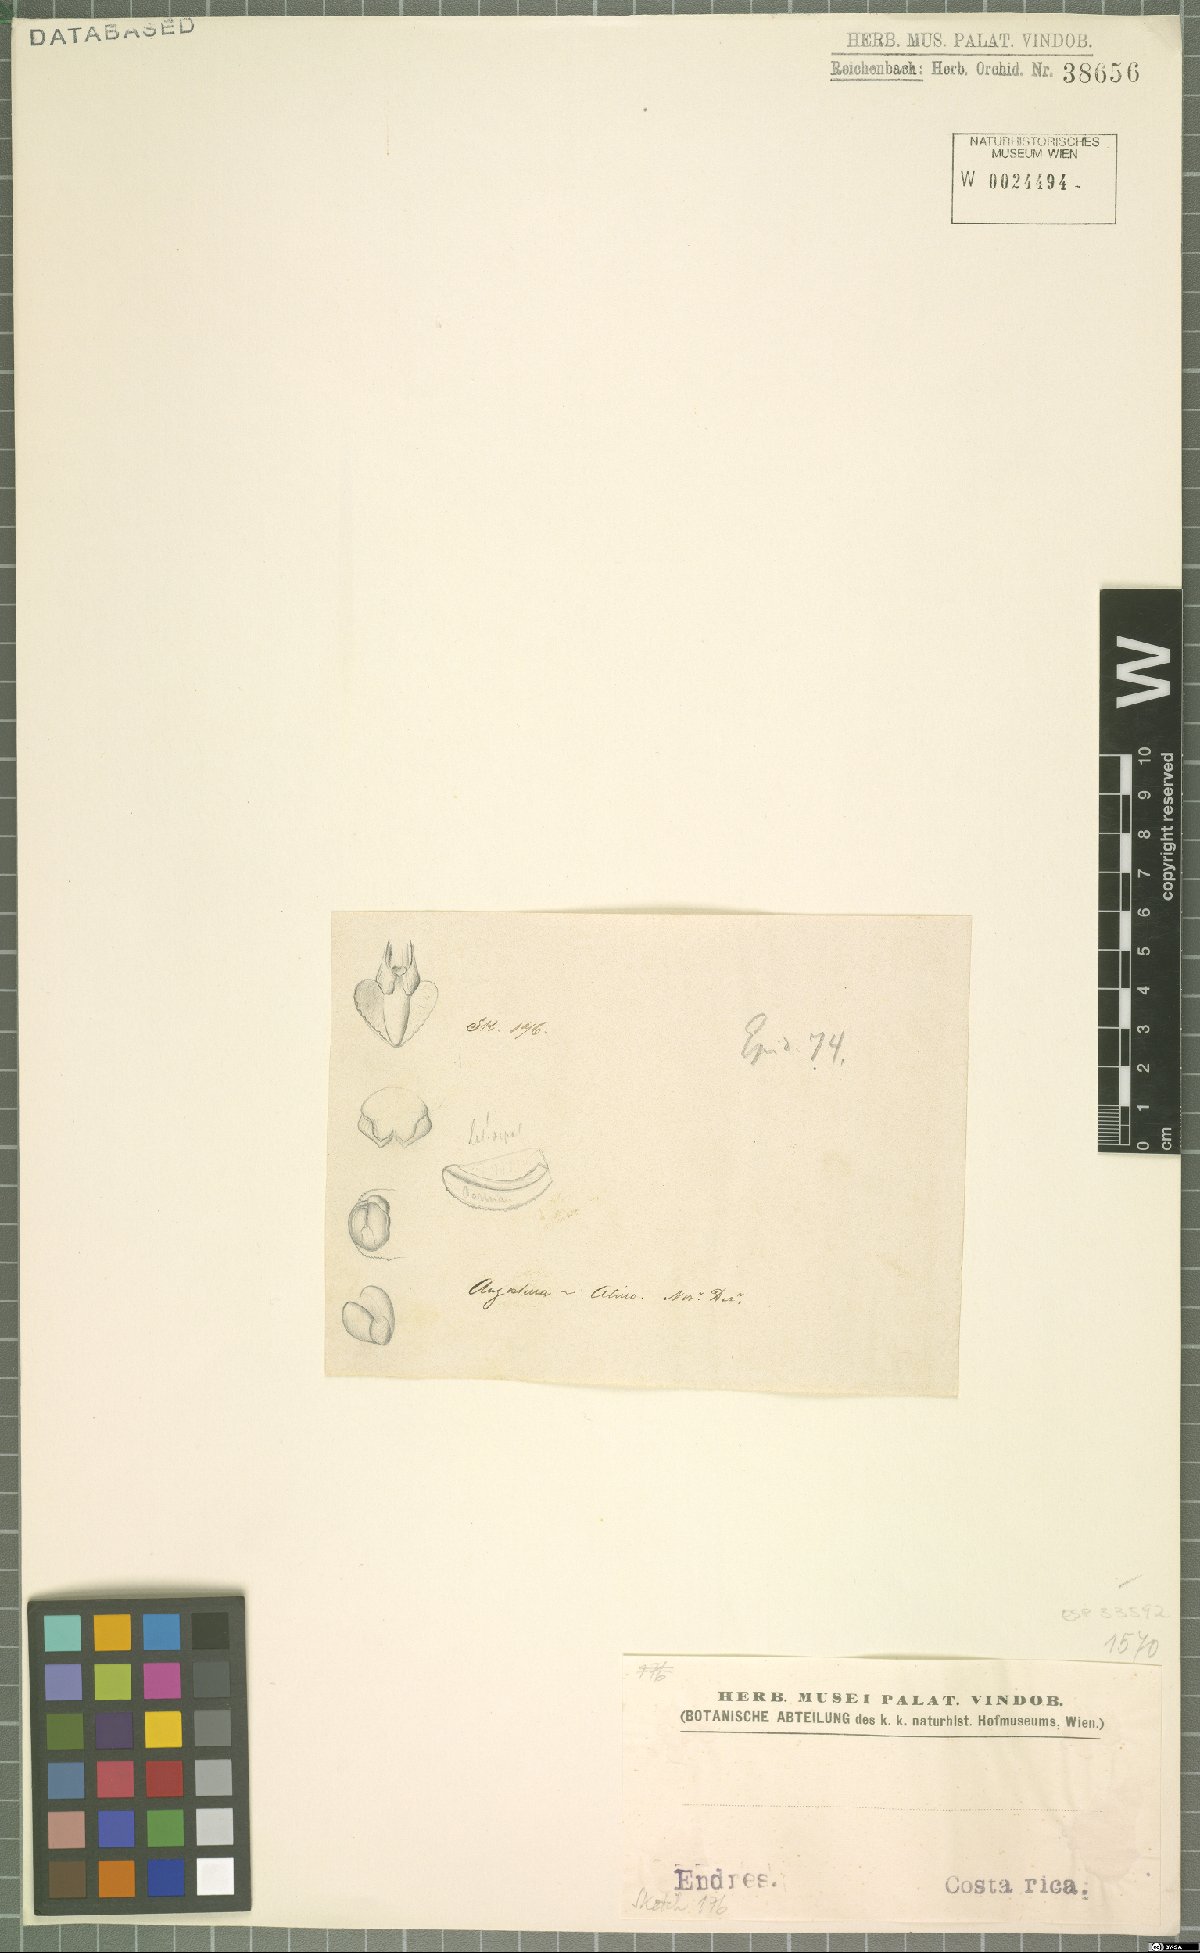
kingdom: Plantae
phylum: Tracheophyta
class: Liliopsida
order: Asparagales
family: Orchidaceae
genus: Epidendrum
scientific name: Epidendrum
